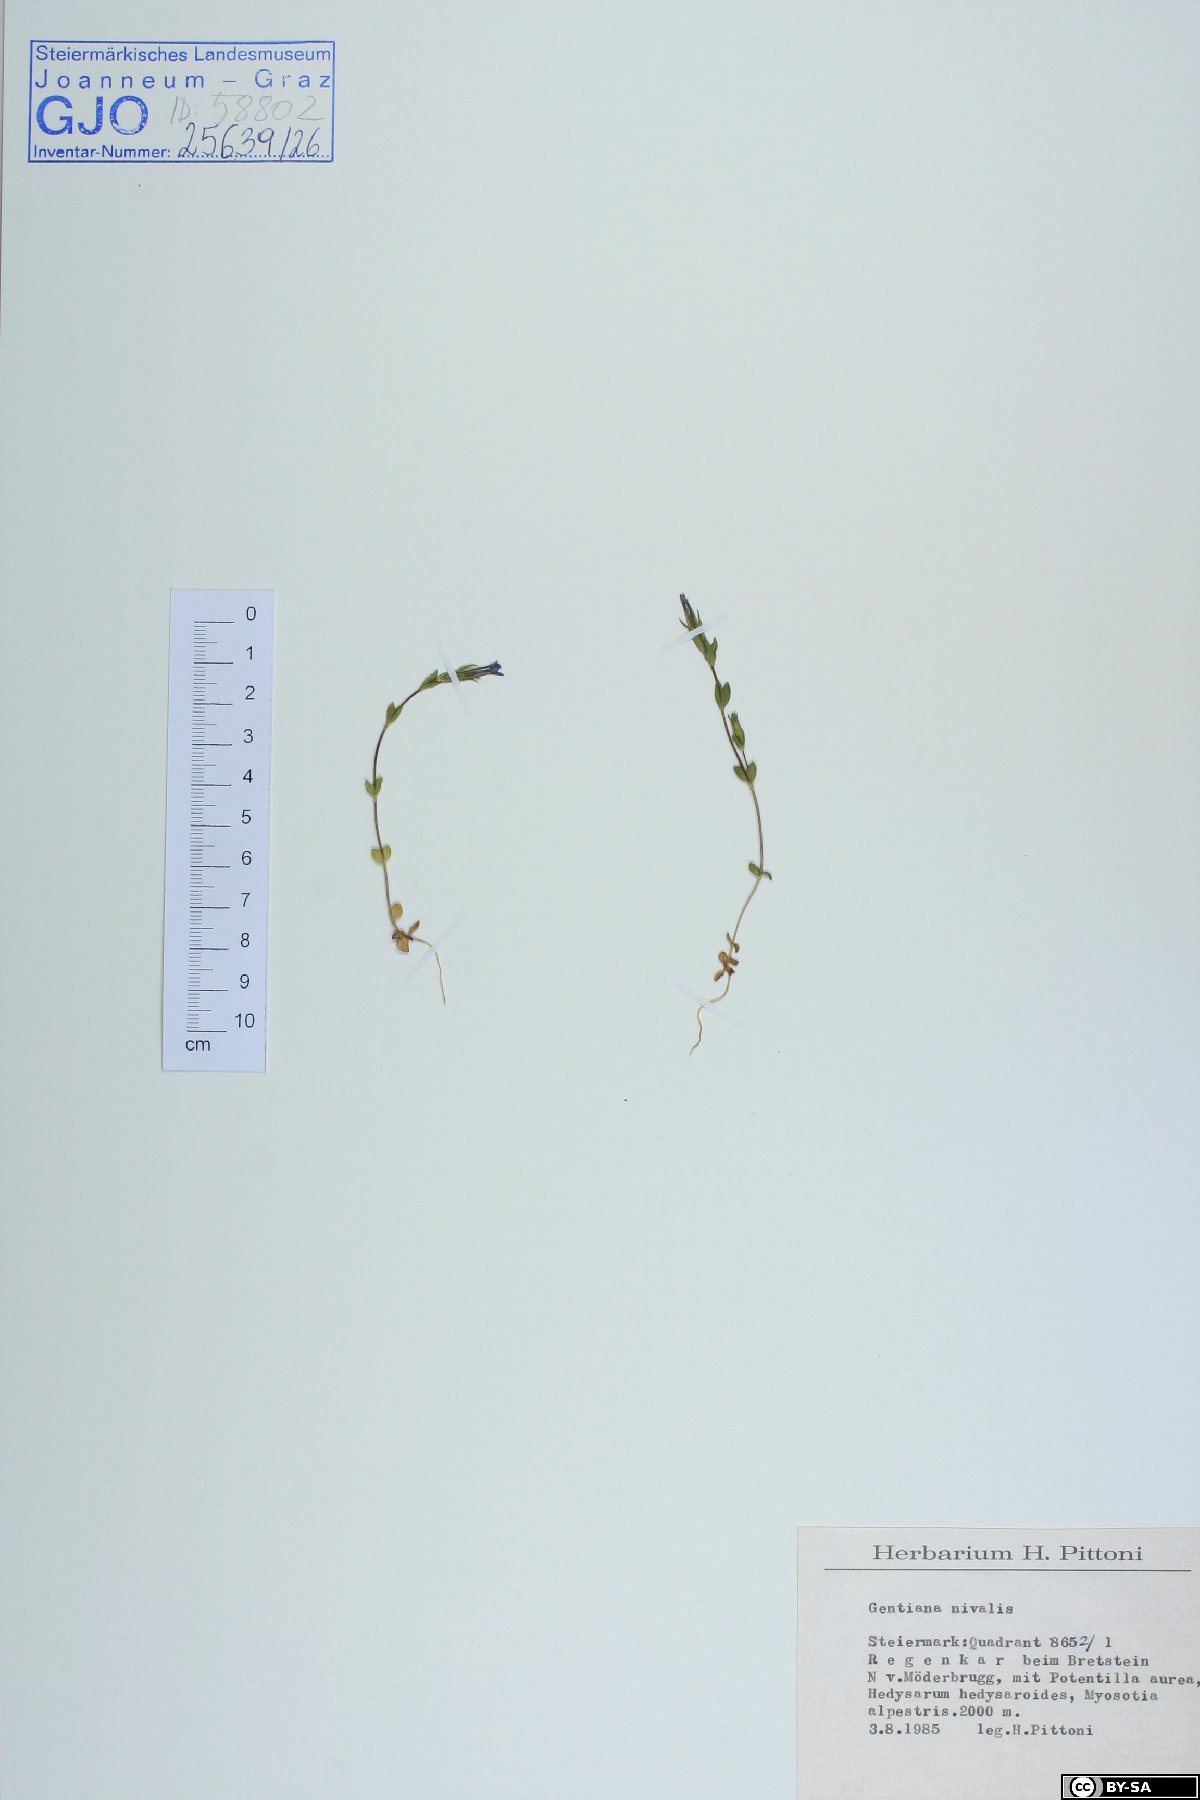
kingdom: Plantae
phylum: Tracheophyta
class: Magnoliopsida
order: Gentianales
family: Gentianaceae
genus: Gentiana
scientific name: Gentiana nivalis
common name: Alpine gentian
